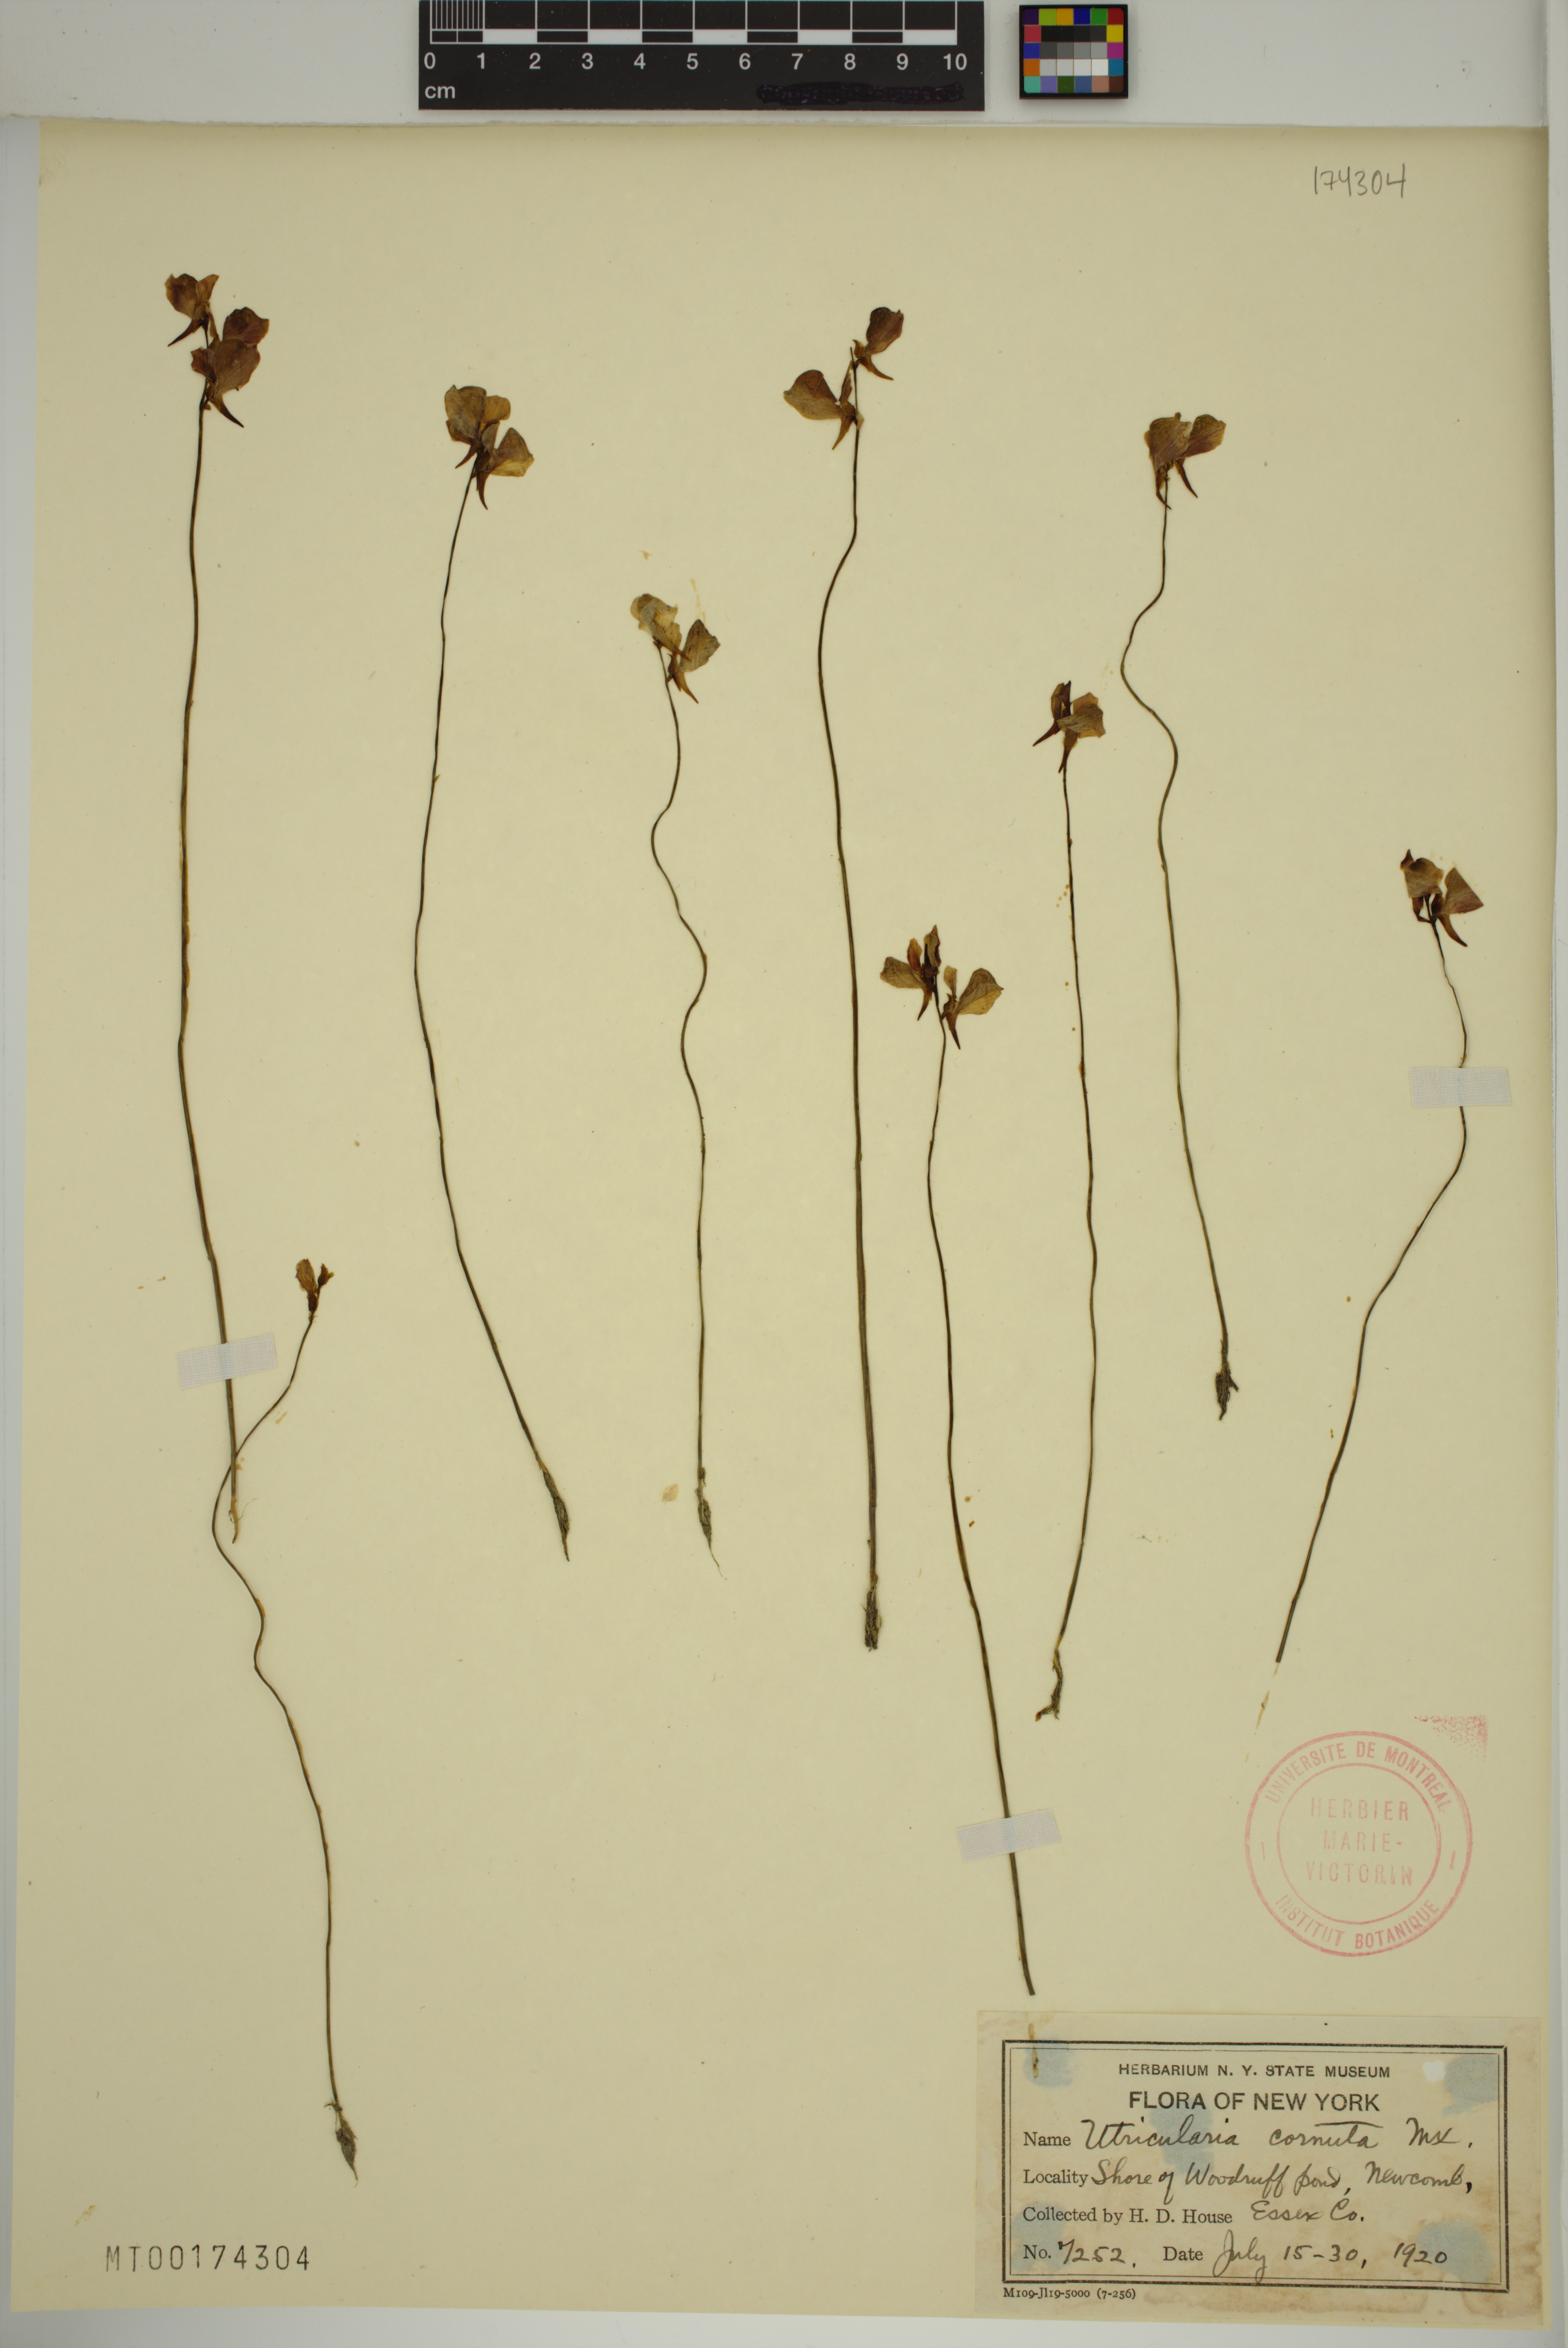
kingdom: Plantae
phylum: Tracheophyta
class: Magnoliopsida
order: Lamiales
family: Lentibulariaceae
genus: Utricularia
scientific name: Utricularia cornuta
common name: Horned bladderwort
